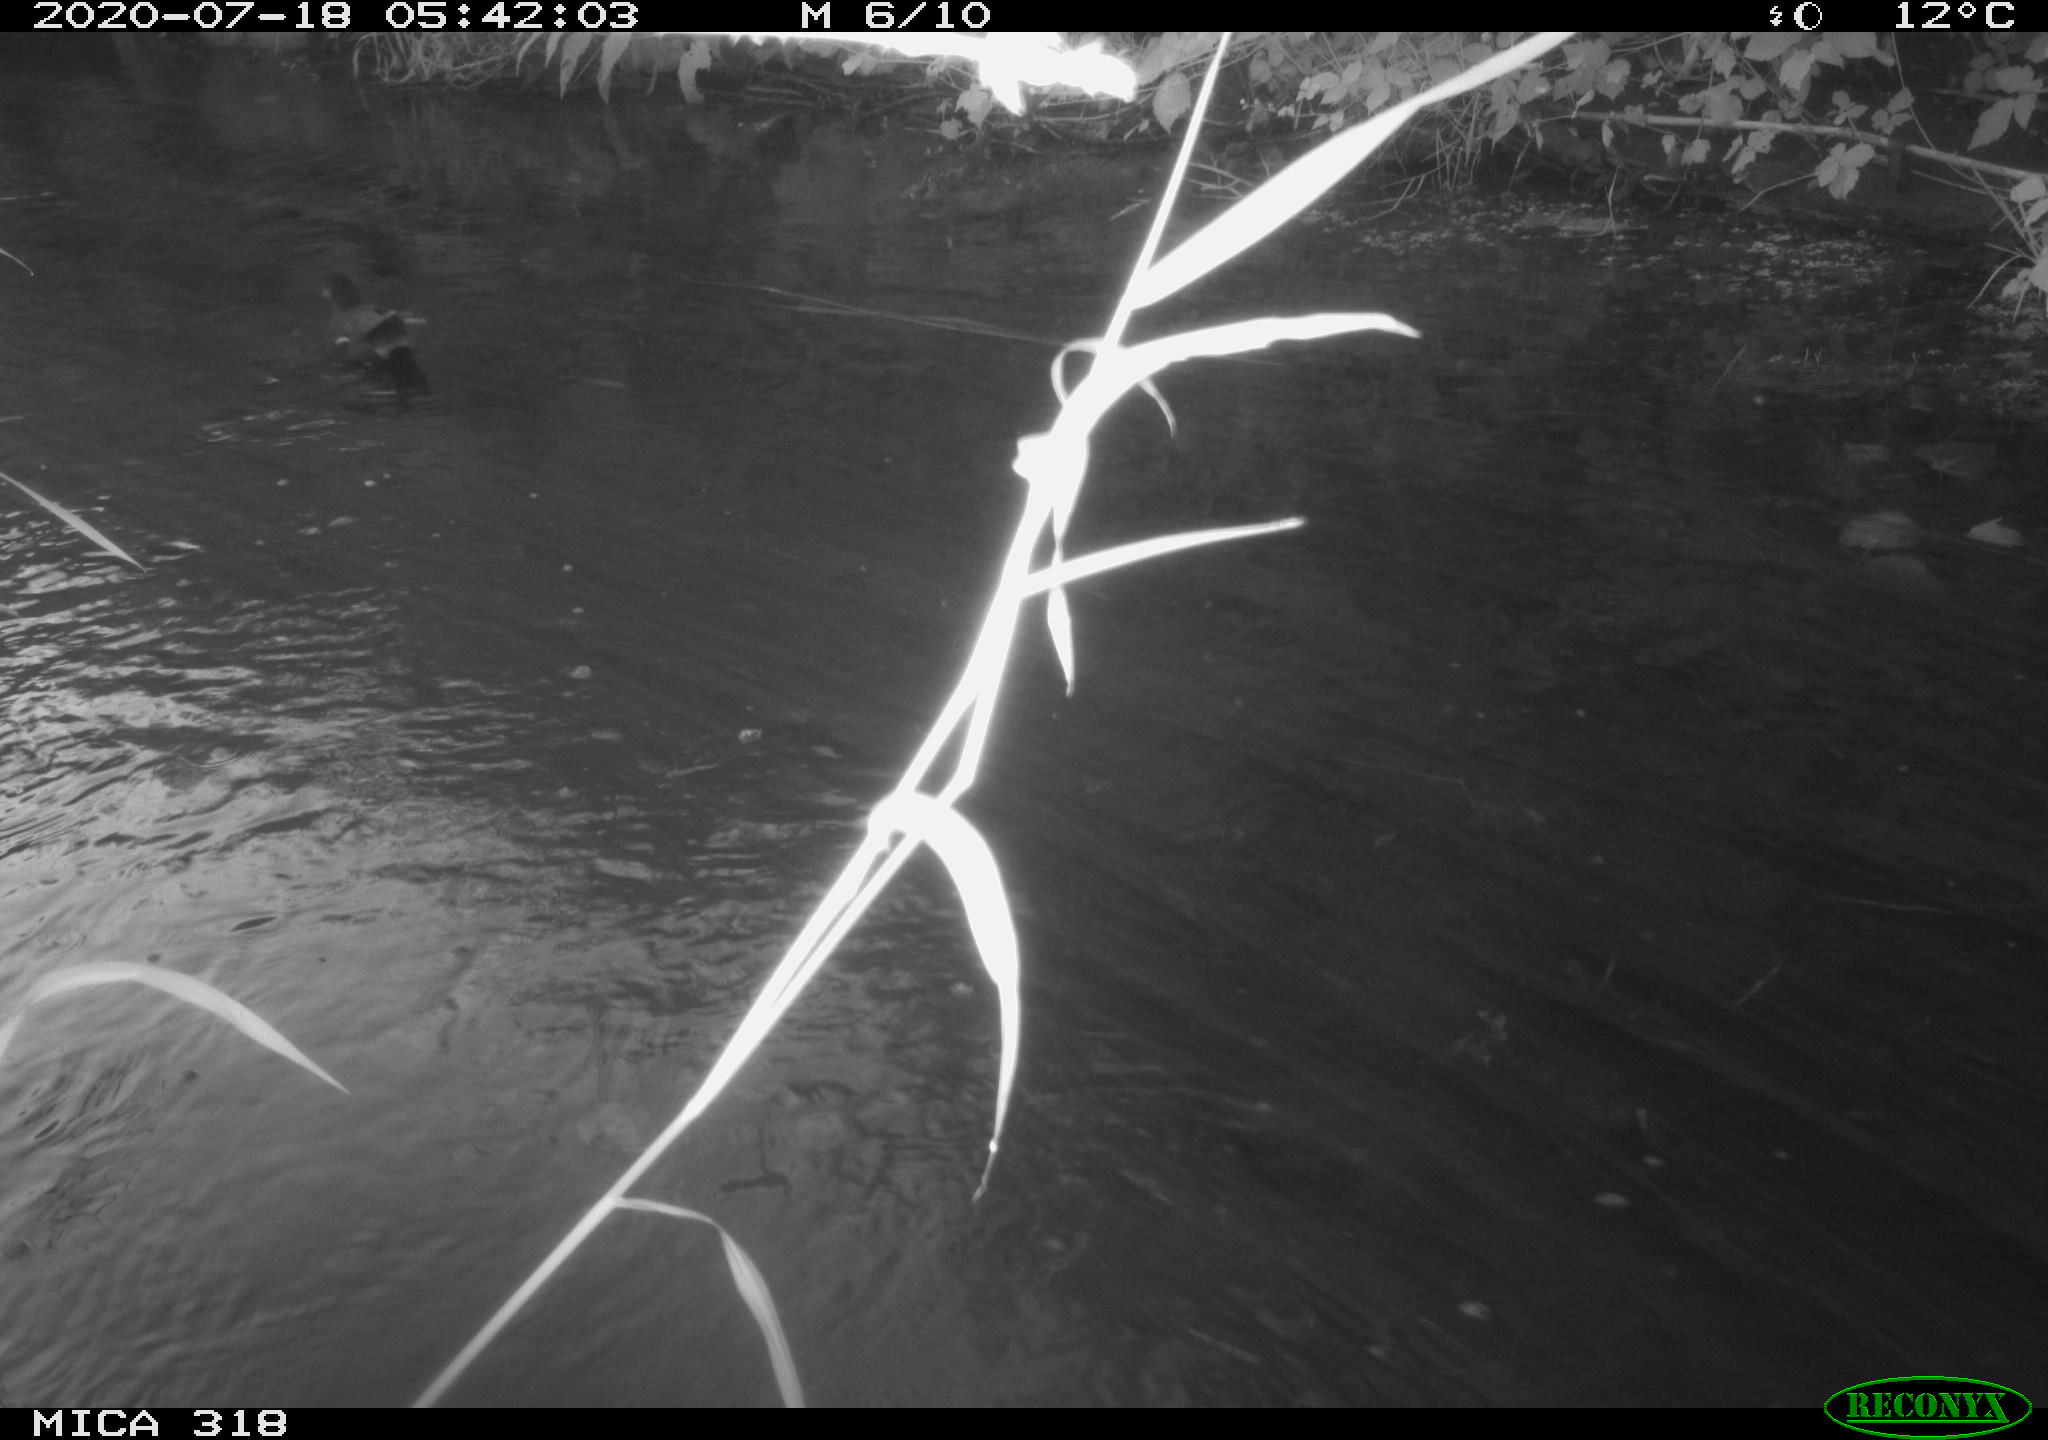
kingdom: Animalia
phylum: Chordata
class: Aves
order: Gruiformes
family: Rallidae
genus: Gallinula
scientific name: Gallinula chloropus
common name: Common moorhen
